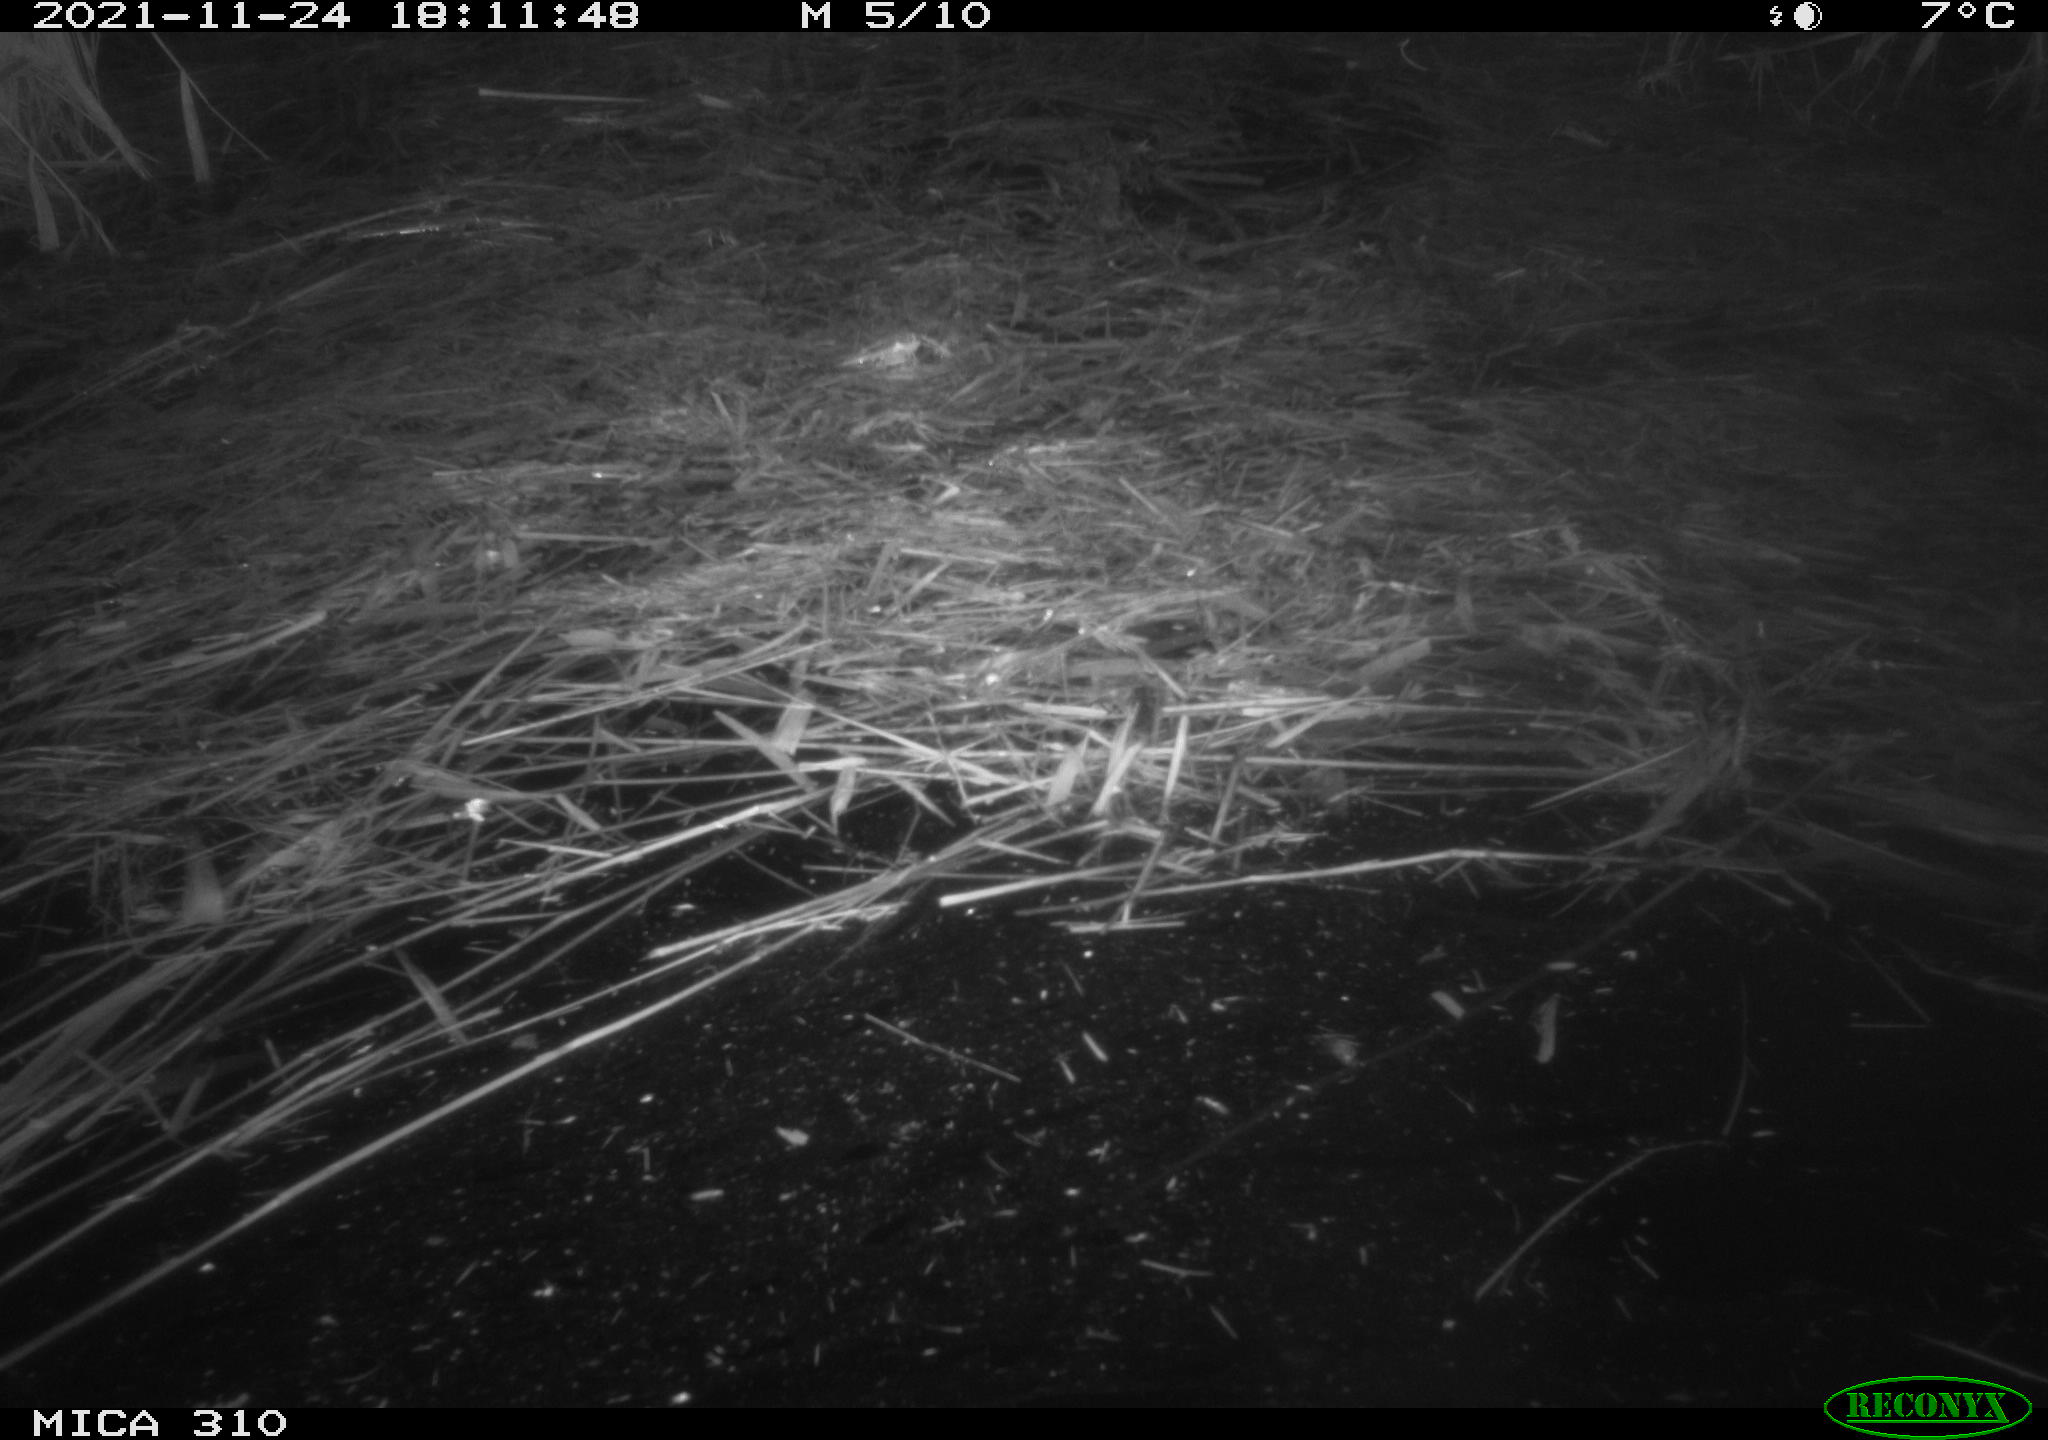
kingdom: Animalia
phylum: Chordata
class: Mammalia
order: Rodentia
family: Muridae
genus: Rattus
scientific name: Rattus norvegicus
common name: Brown rat
